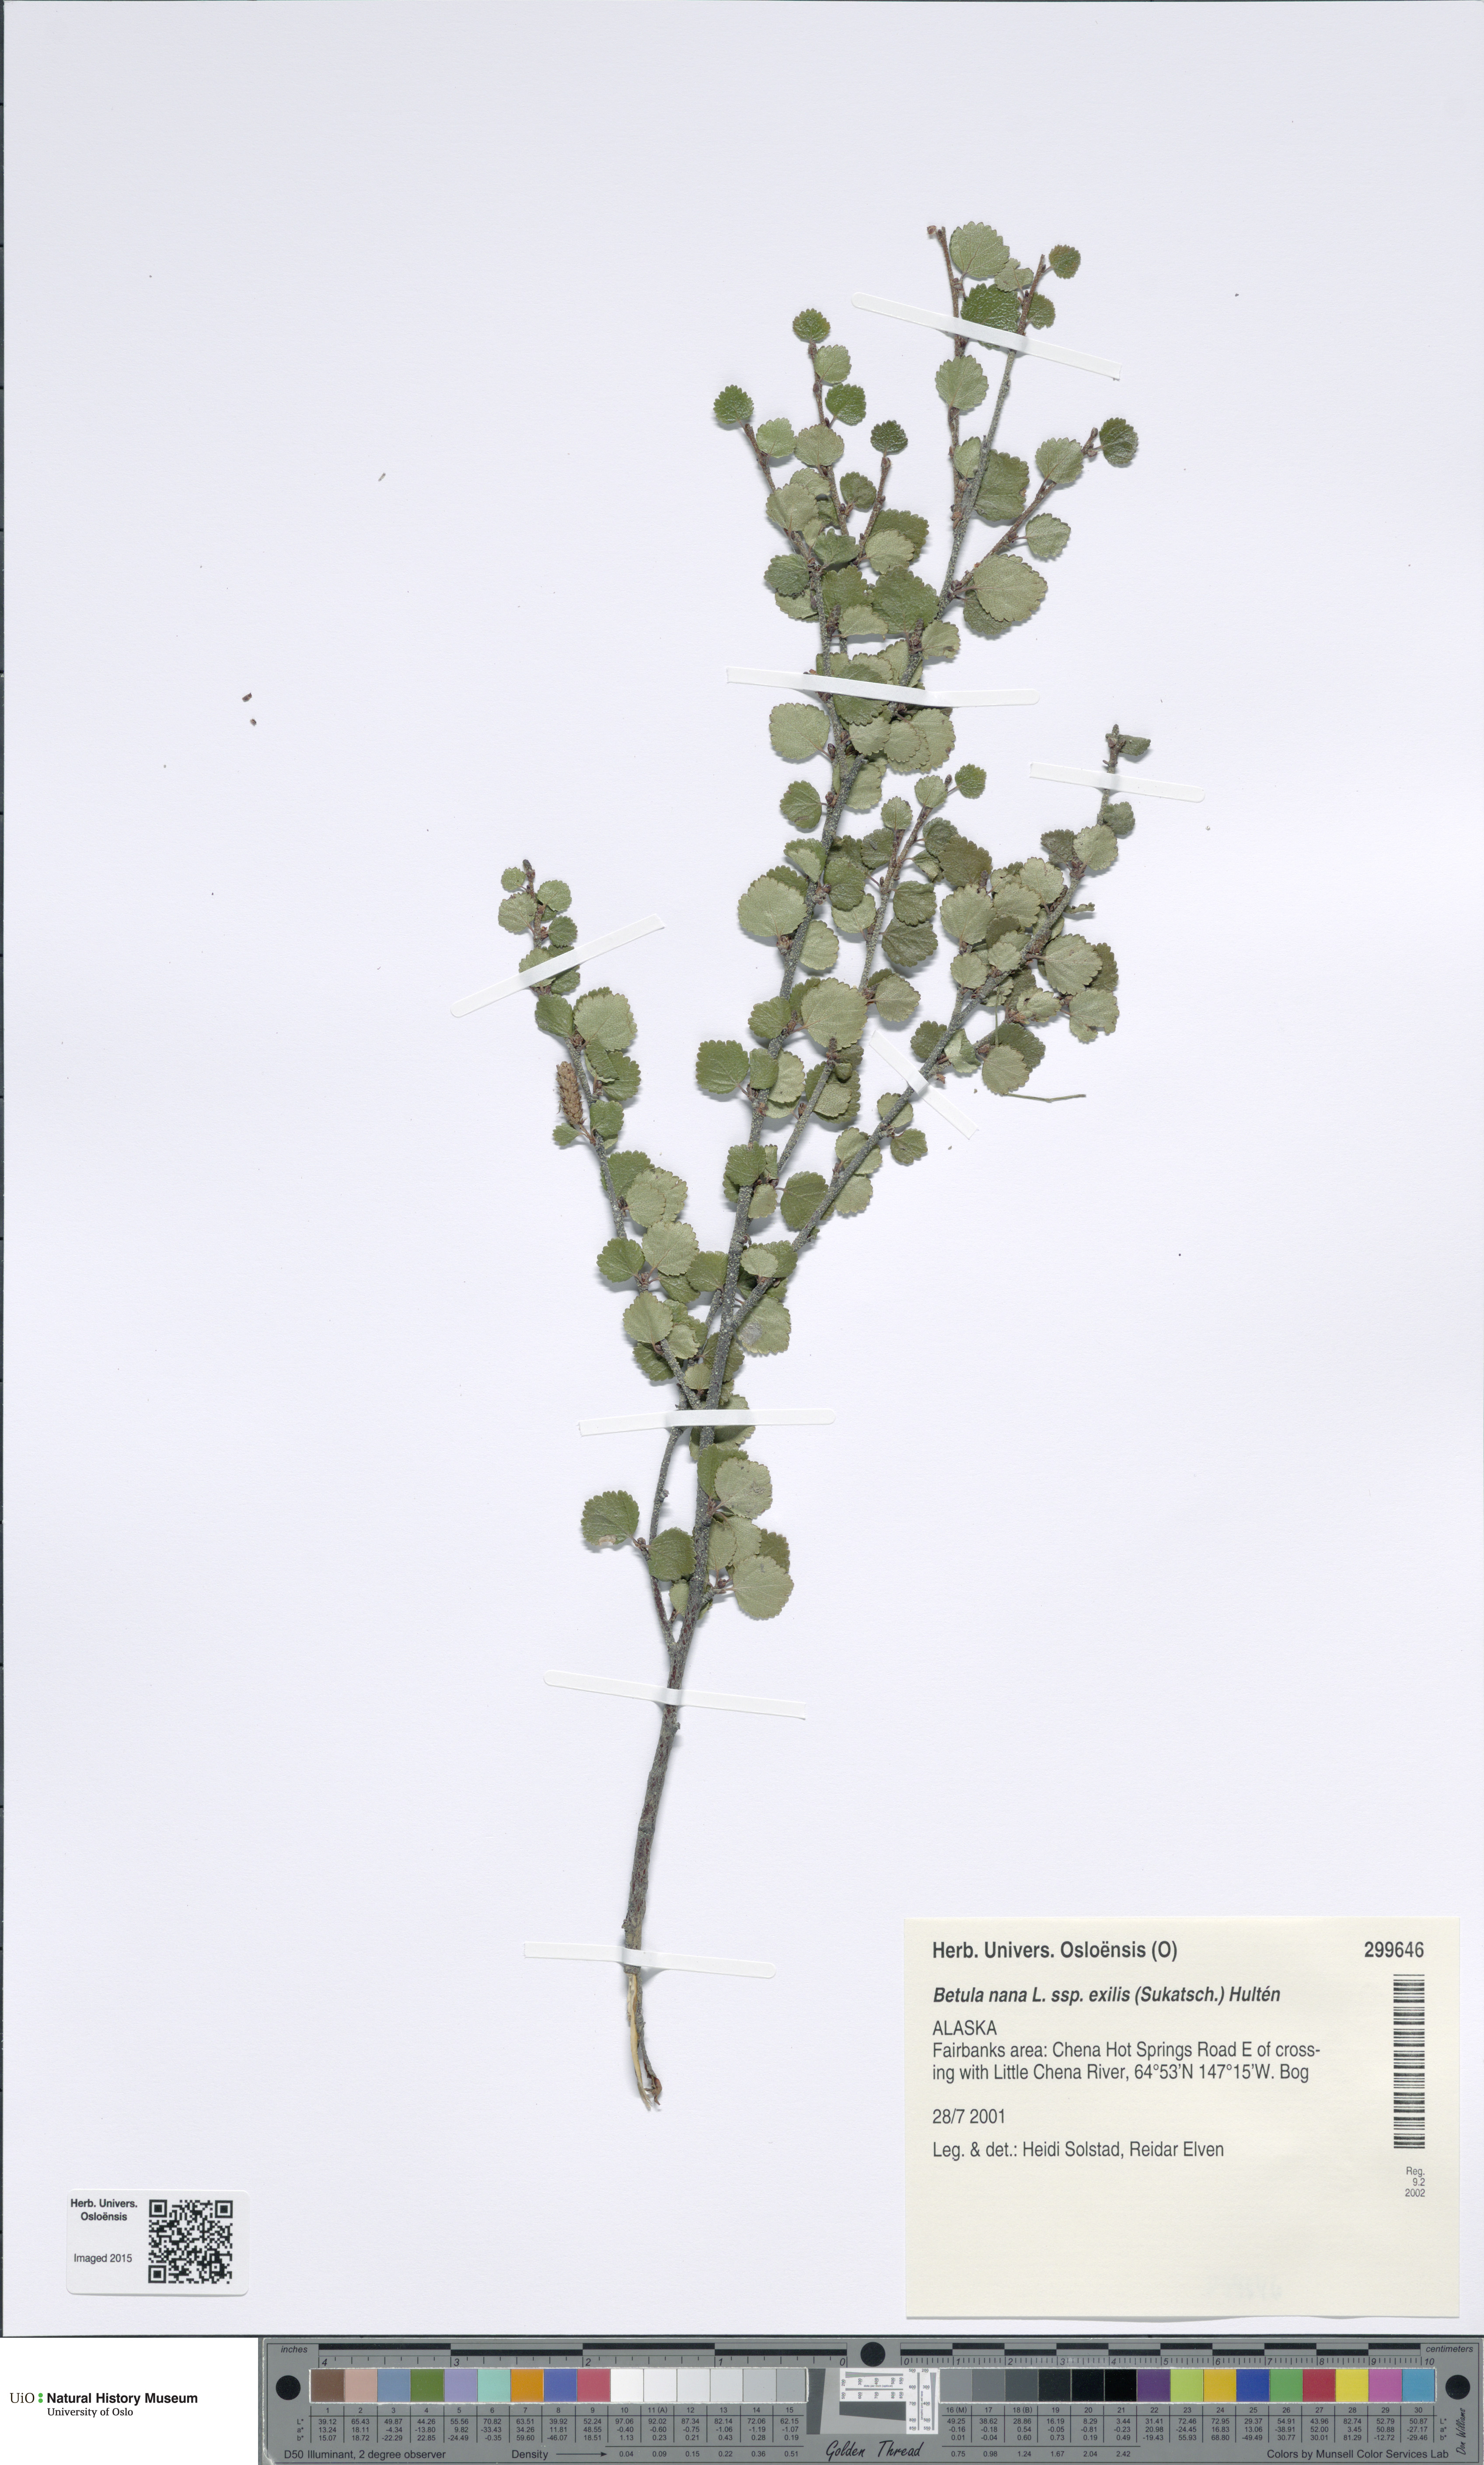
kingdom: Plantae
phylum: Tracheophyta
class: Magnoliopsida
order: Fagales
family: Betulaceae
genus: Betula
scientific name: Betula glandulosa
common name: Dwarf birch
